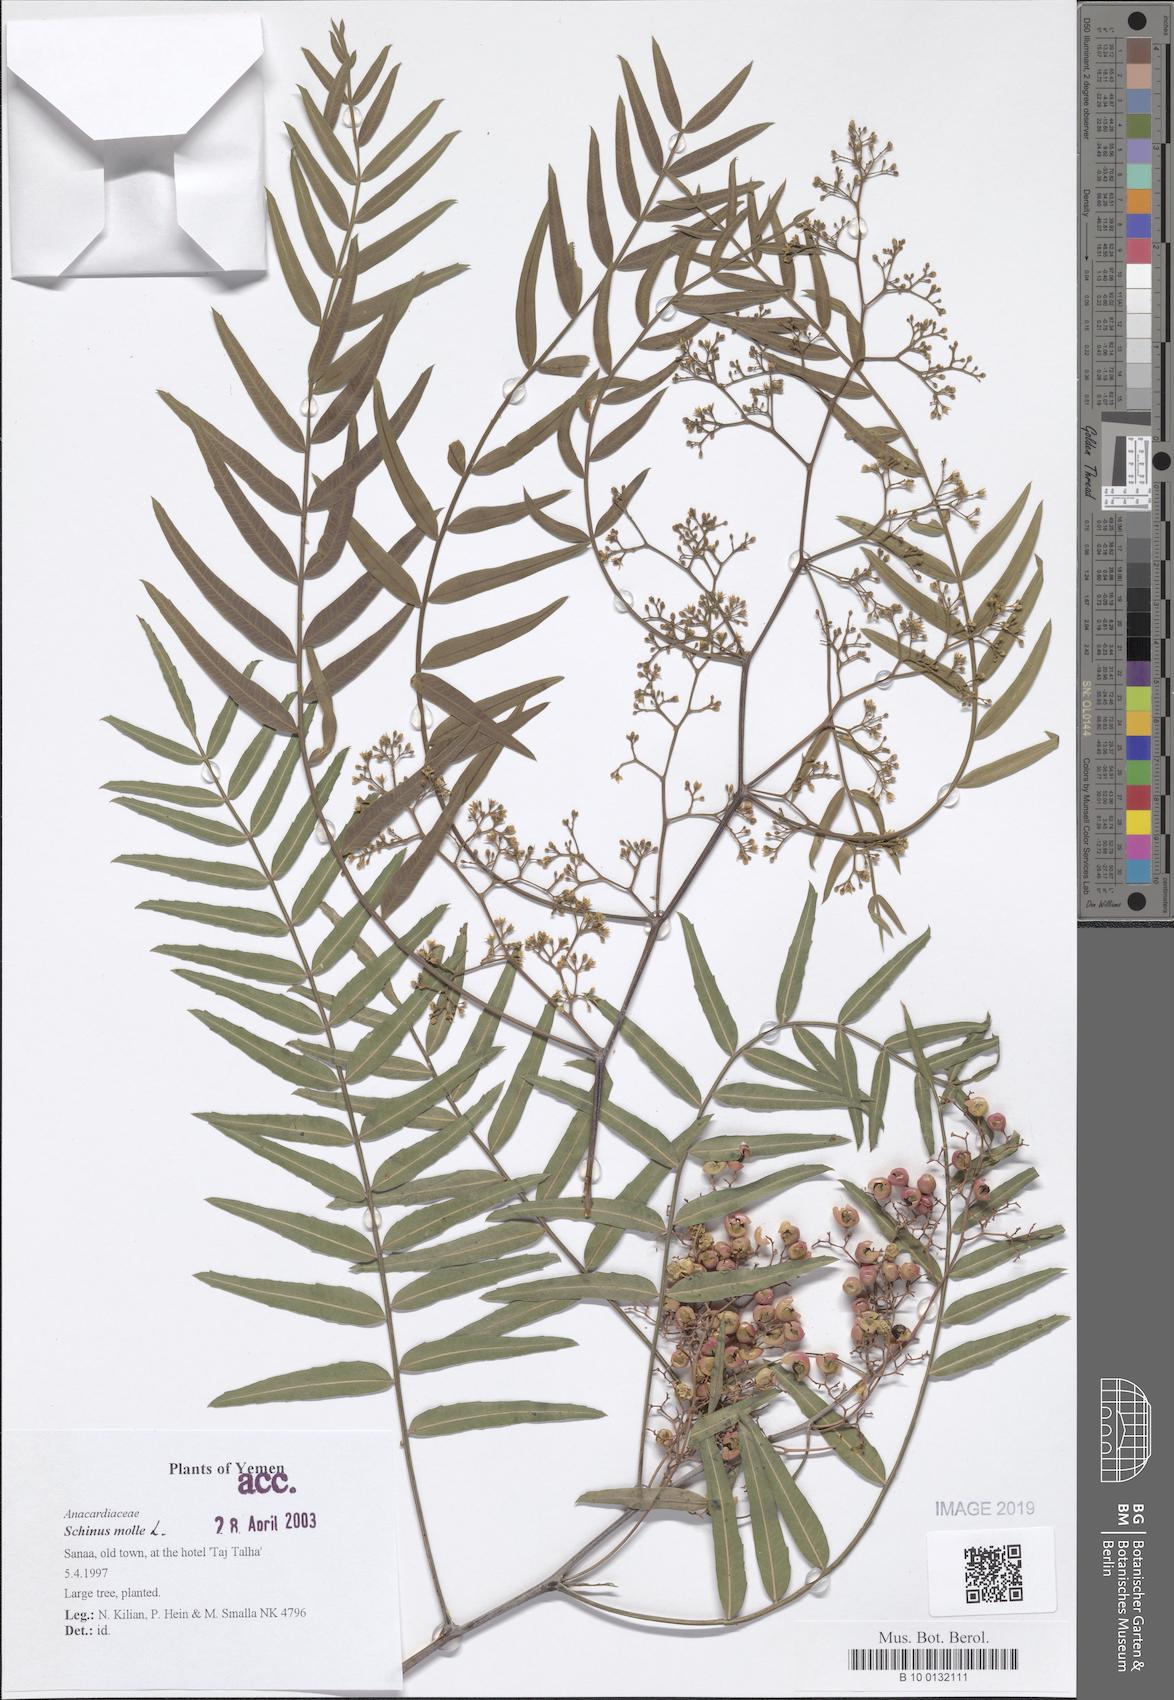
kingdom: Plantae
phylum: Tracheophyta
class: Magnoliopsida
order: Sapindales
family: Anacardiaceae
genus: Schinus
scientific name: Schinus molle
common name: Peruvian peppertree
